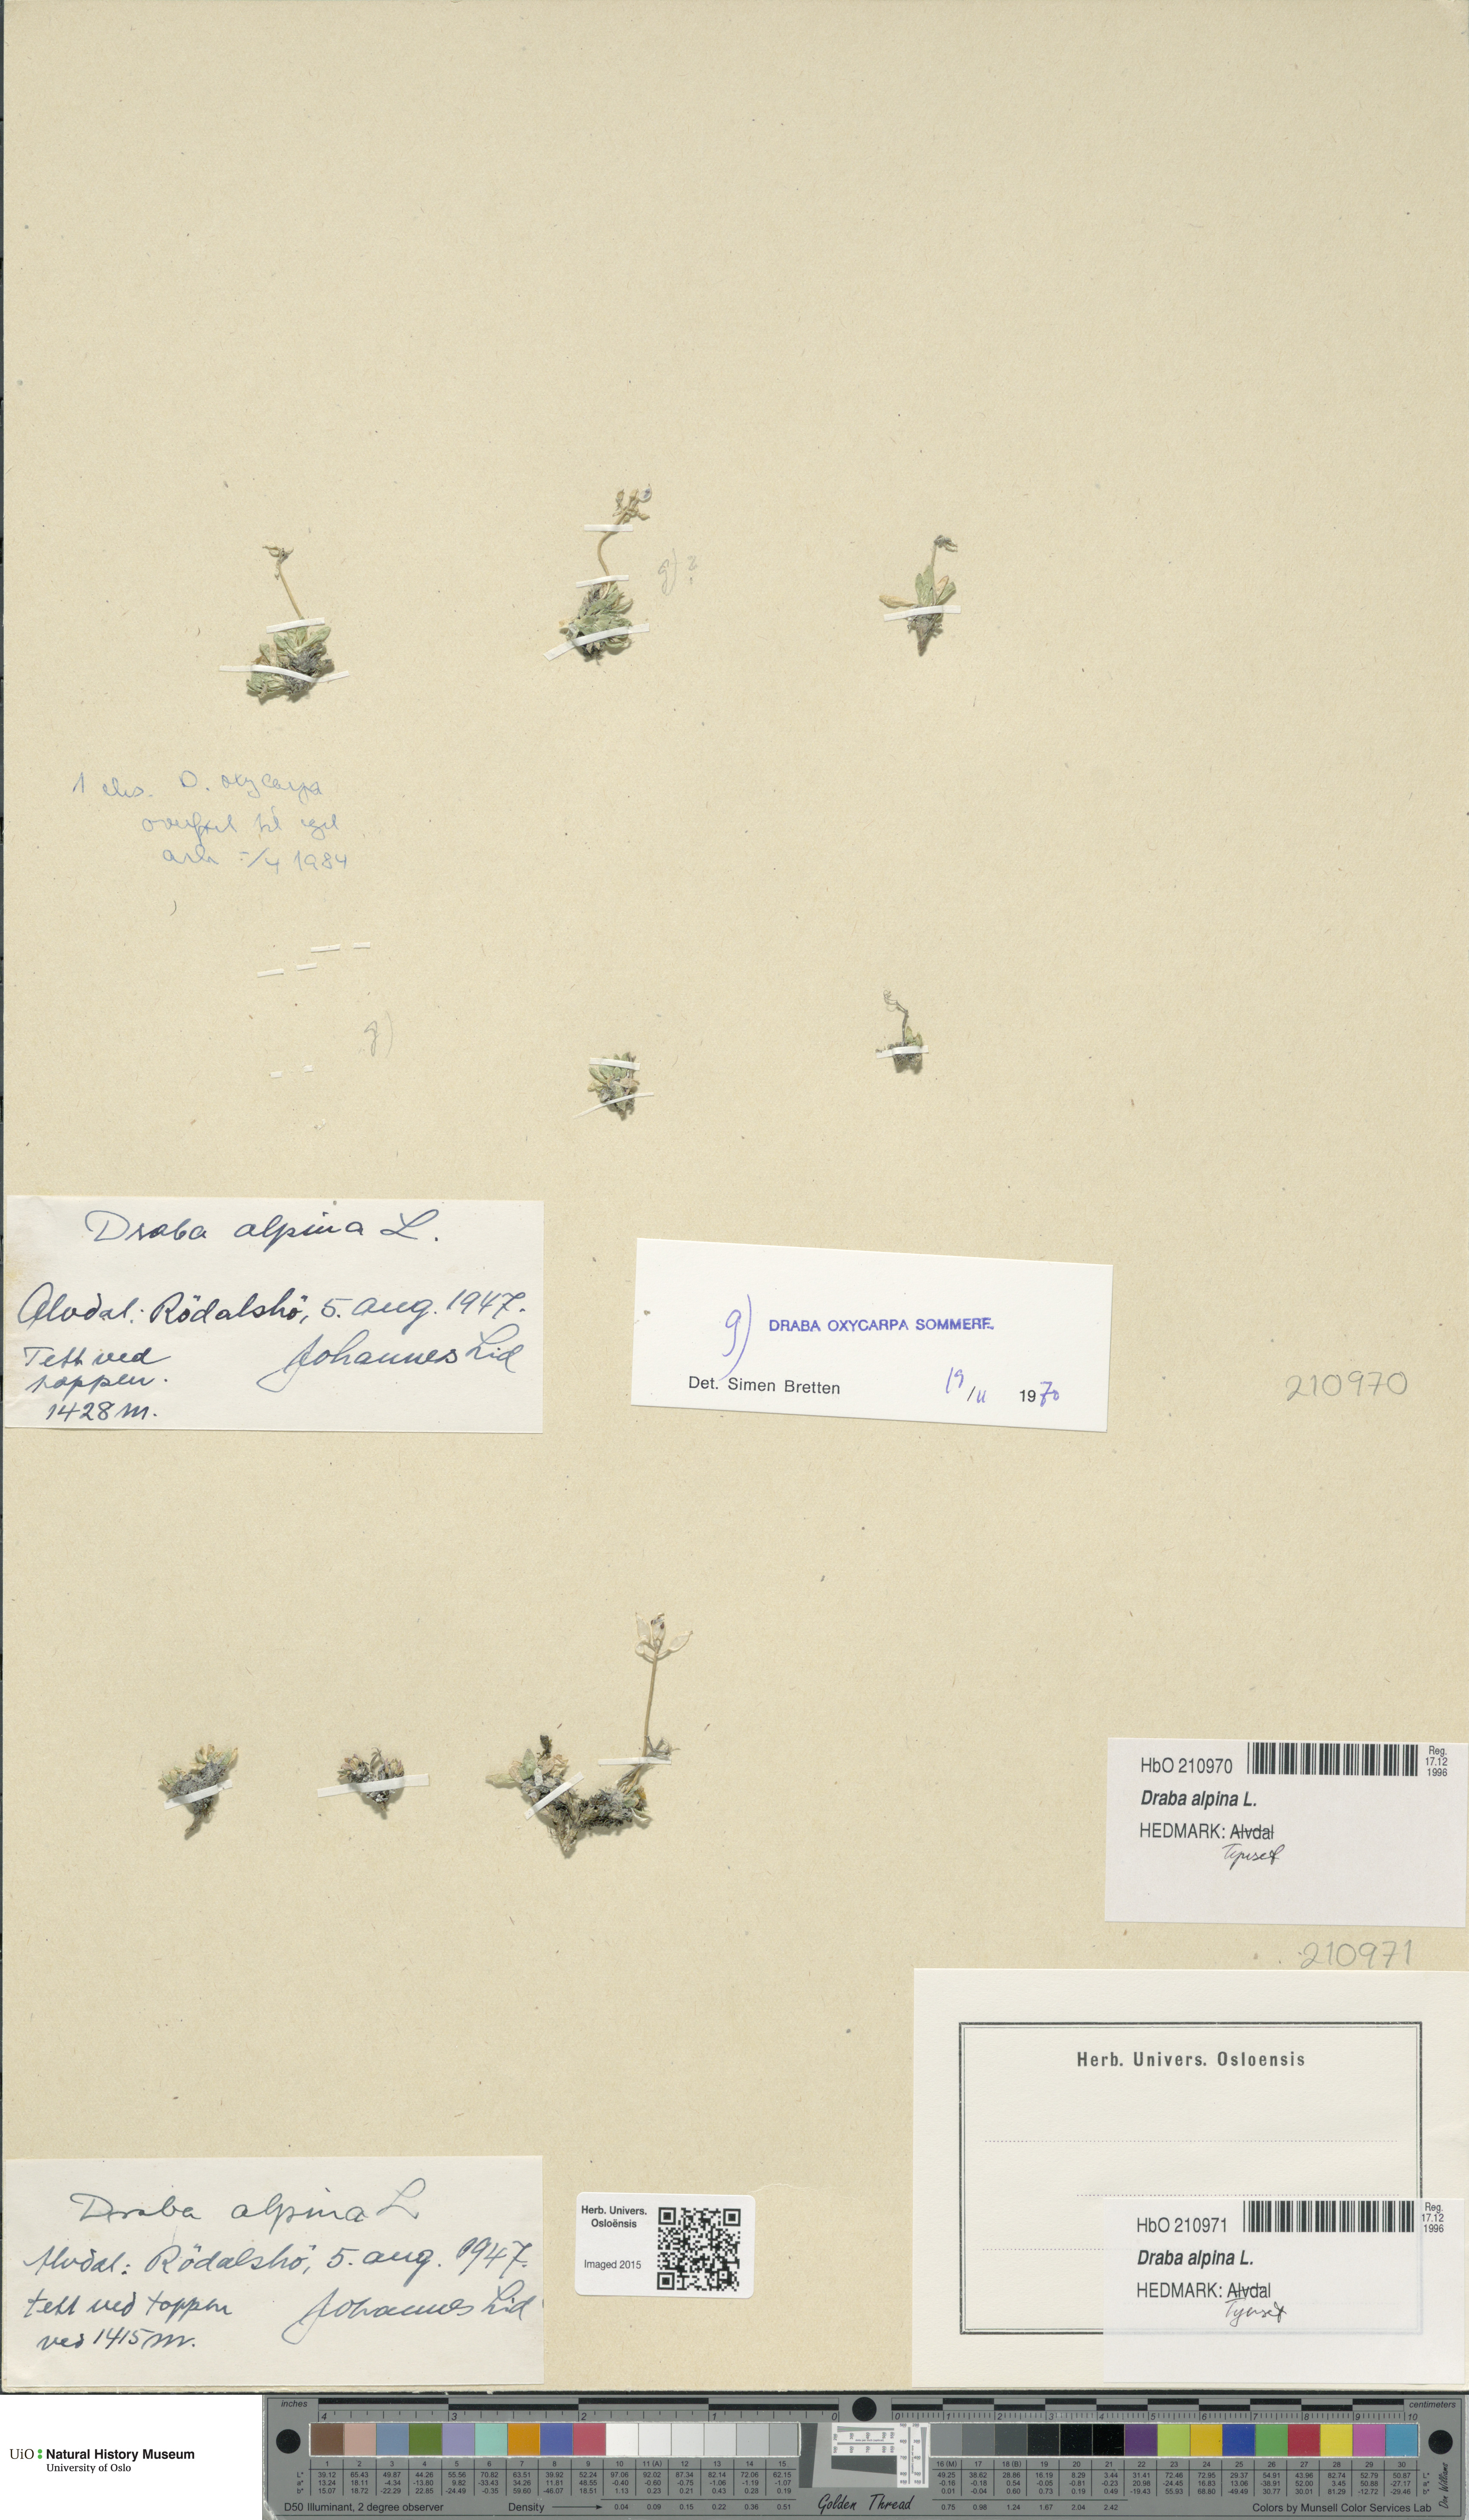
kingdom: Plantae
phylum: Tracheophyta
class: Magnoliopsida
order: Brassicales
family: Brassicaceae
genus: Draba
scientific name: Draba alpina
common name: Alpine draba
